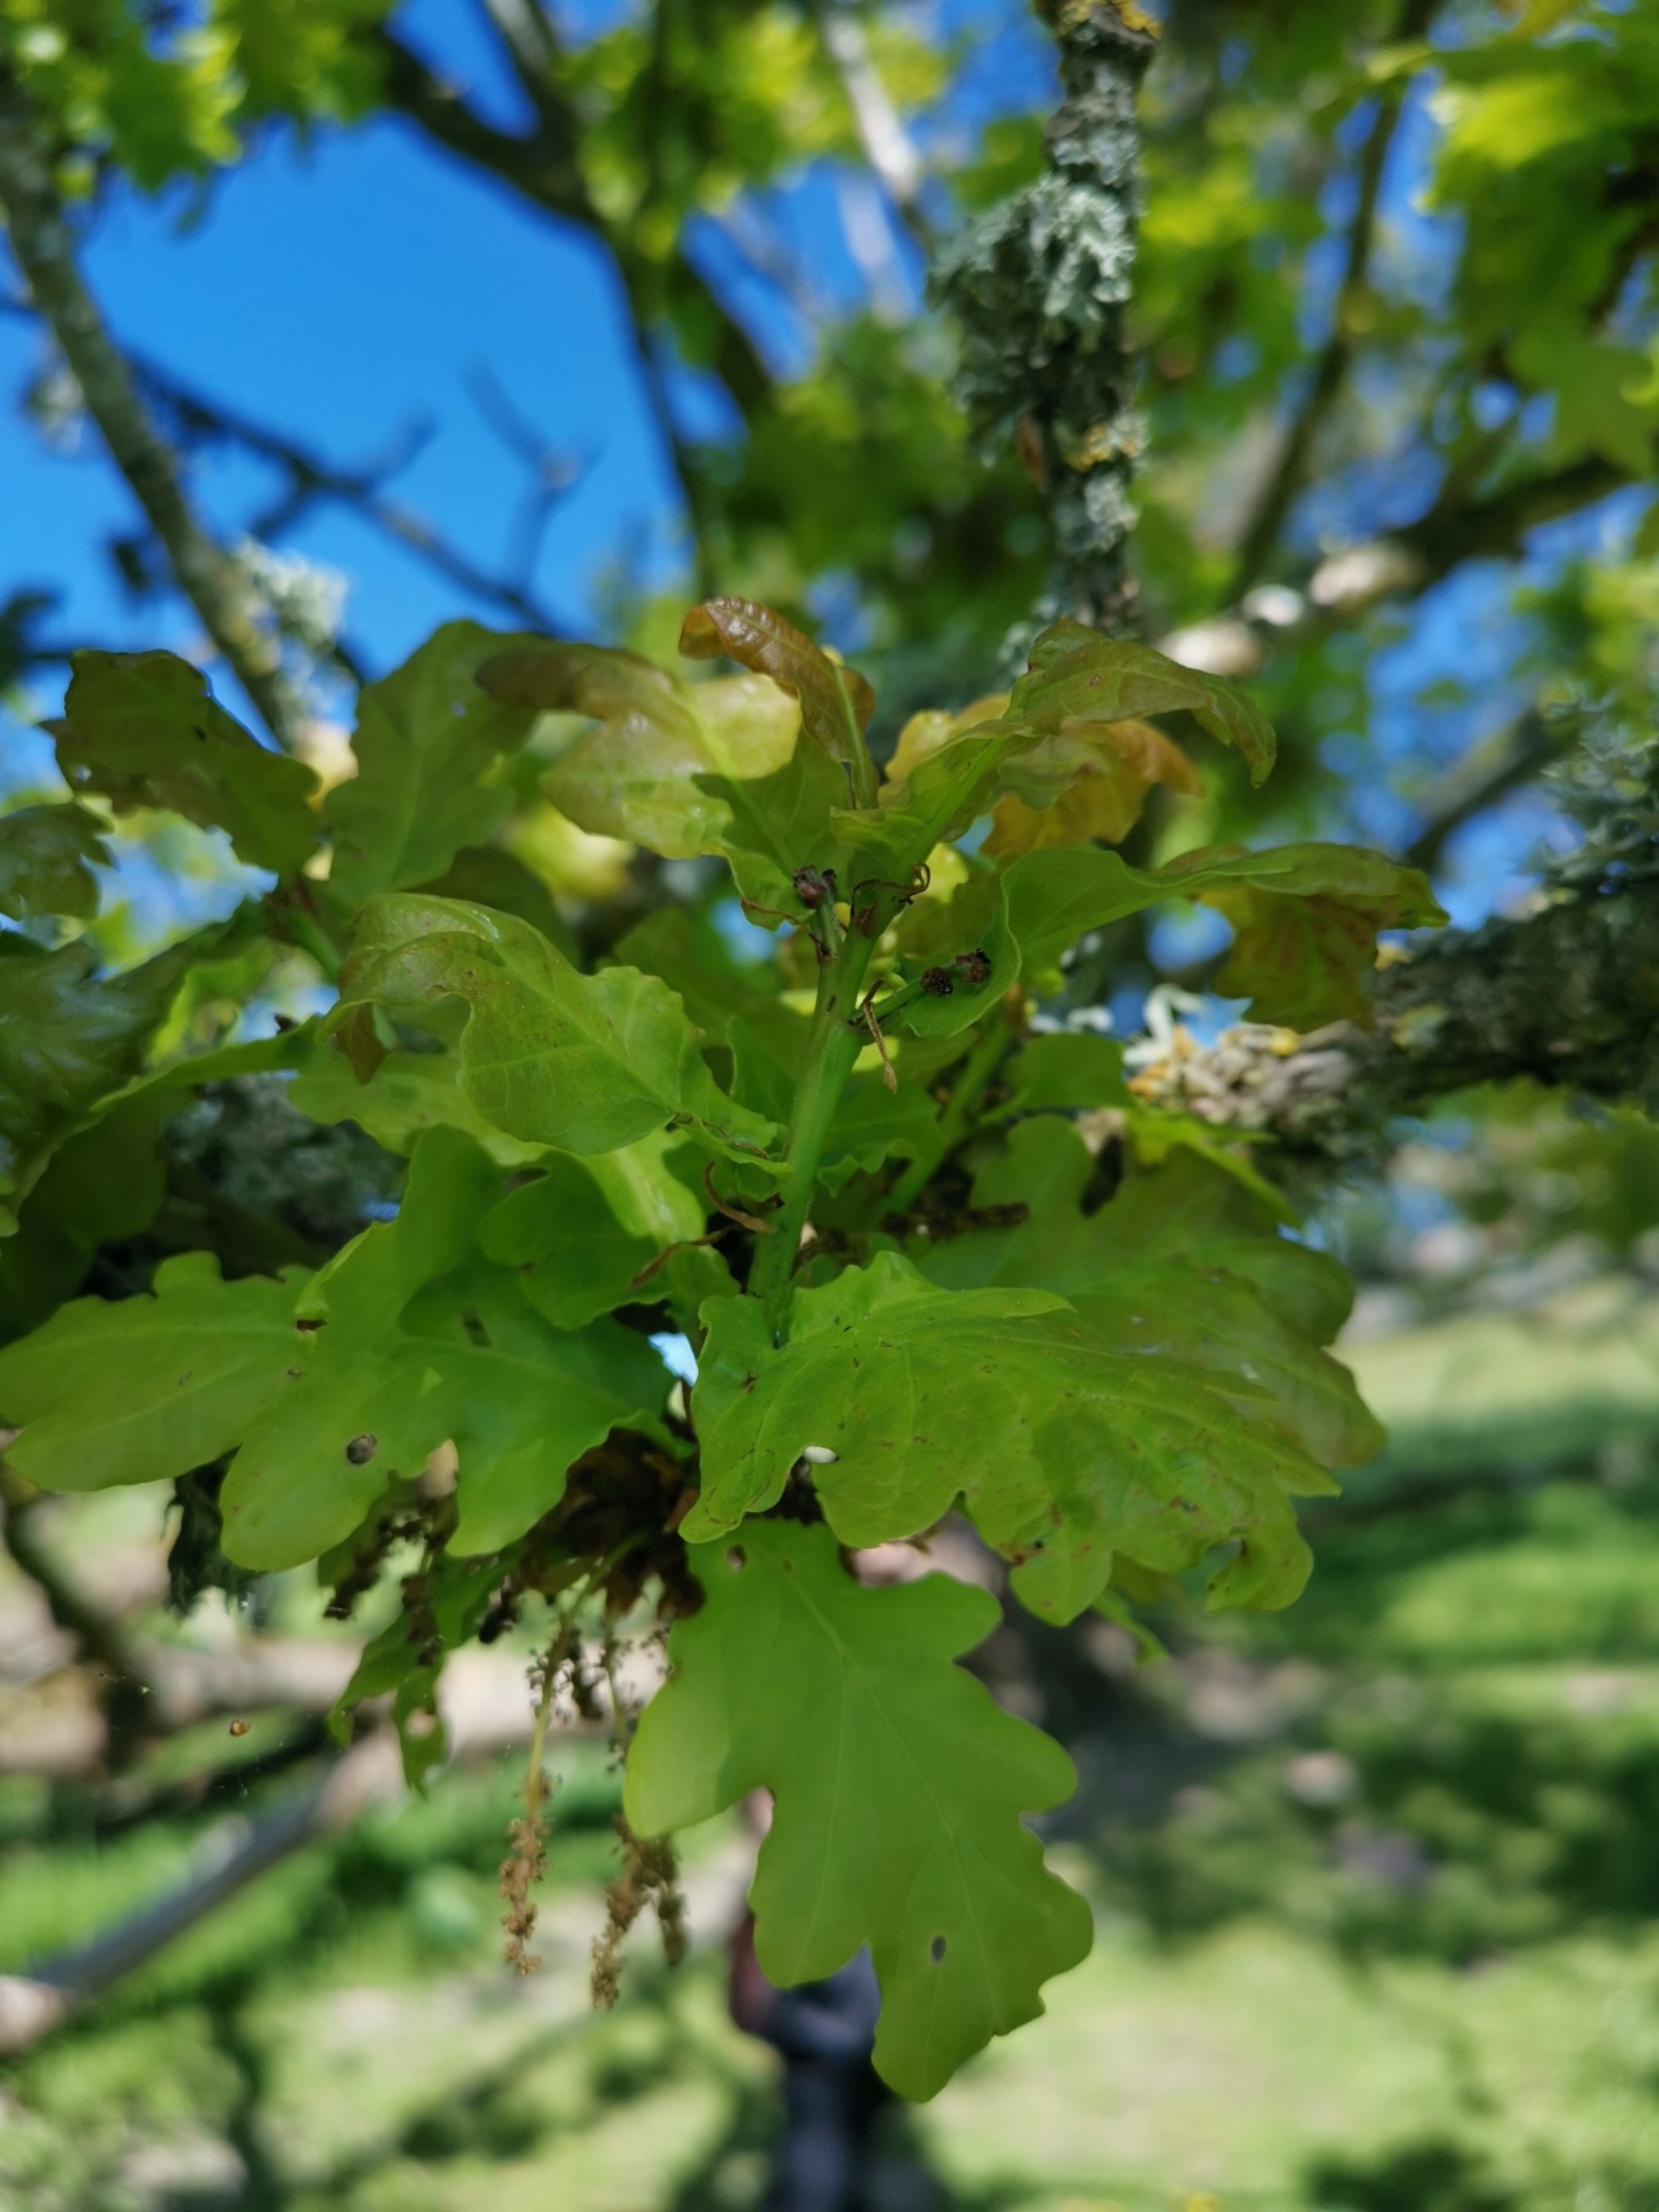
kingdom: Plantae
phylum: Tracheophyta
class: Magnoliopsida
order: Fagales
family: Fagaceae
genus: Quercus
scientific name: Quercus robur
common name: Stilk-eg/almindelig eg
